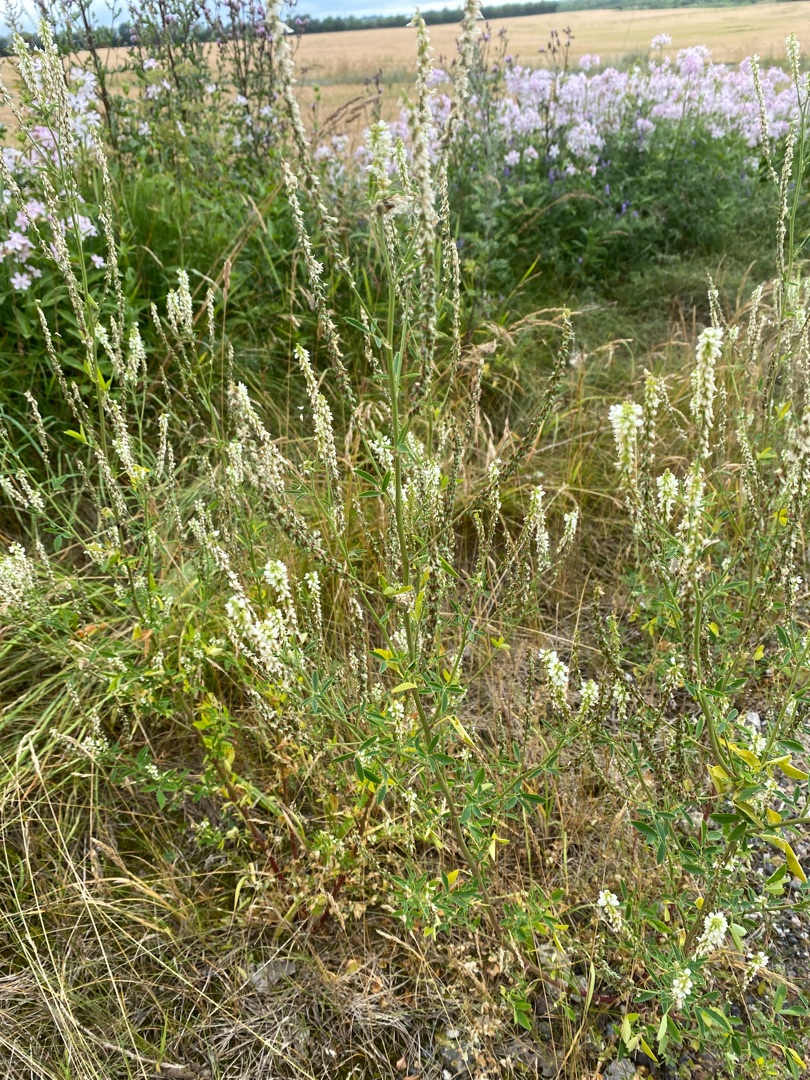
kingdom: Plantae
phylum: Tracheophyta
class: Magnoliopsida
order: Fabales
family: Fabaceae
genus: Melilotus
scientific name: Melilotus albus
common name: Hvid stenkløver
